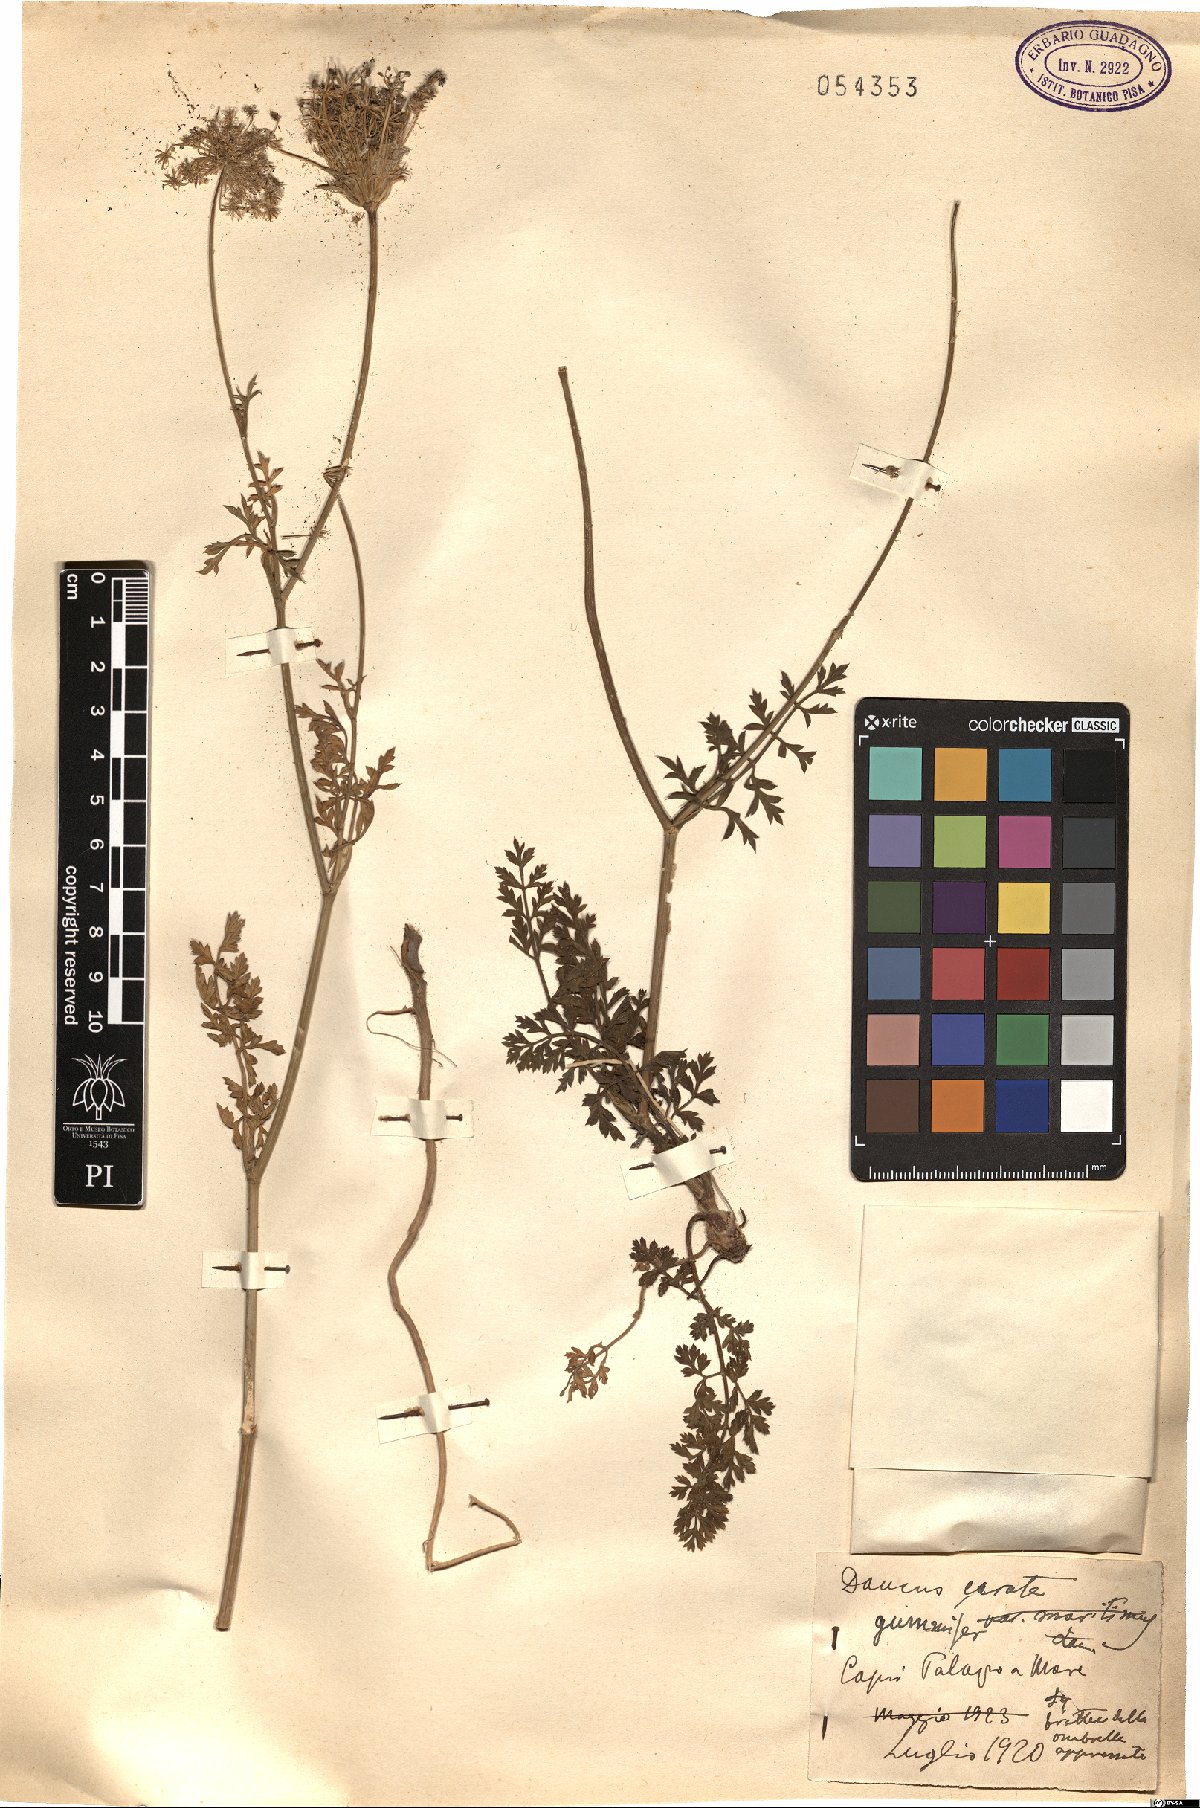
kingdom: Plantae
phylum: Tracheophyta
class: Magnoliopsida
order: Apiales
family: Apiaceae
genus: Daucus
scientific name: Daucus carota
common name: Wild carrot
